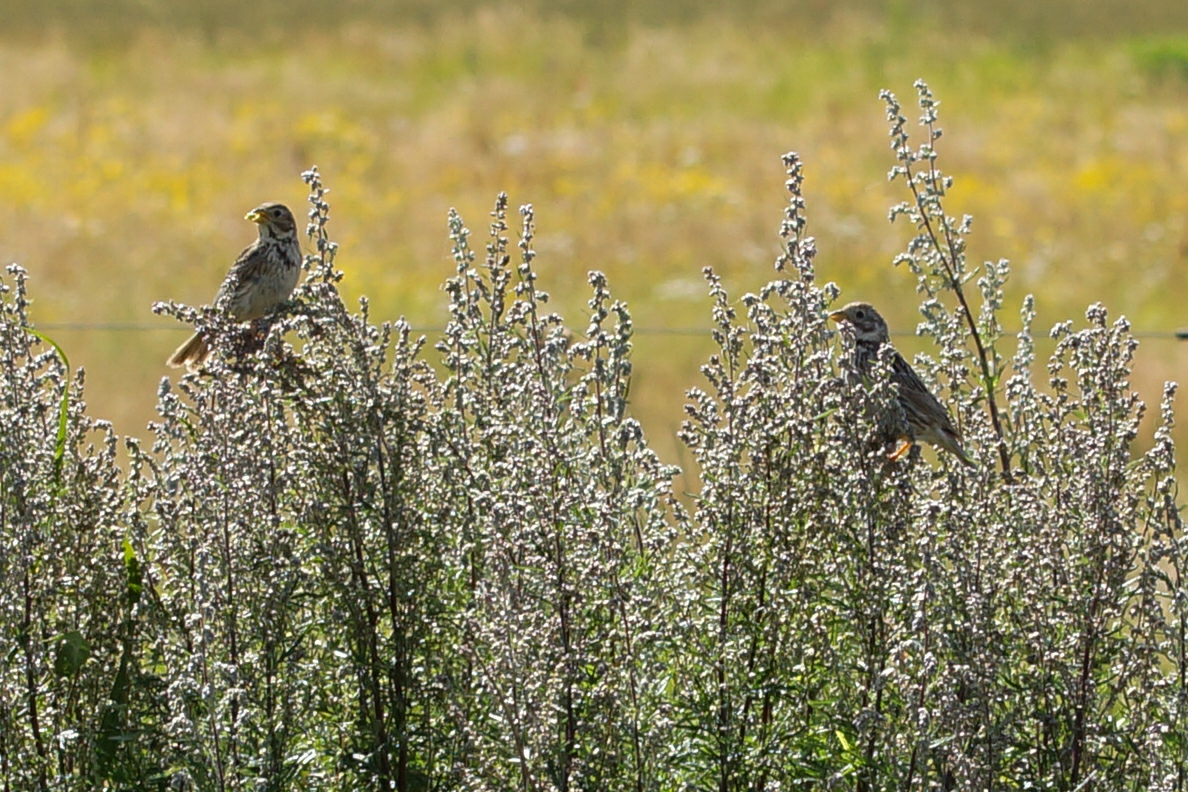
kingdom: Animalia
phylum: Chordata
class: Aves
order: Passeriformes
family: Emberizidae
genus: Emberiza
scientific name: Emberiza calandra
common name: Bomlærke
